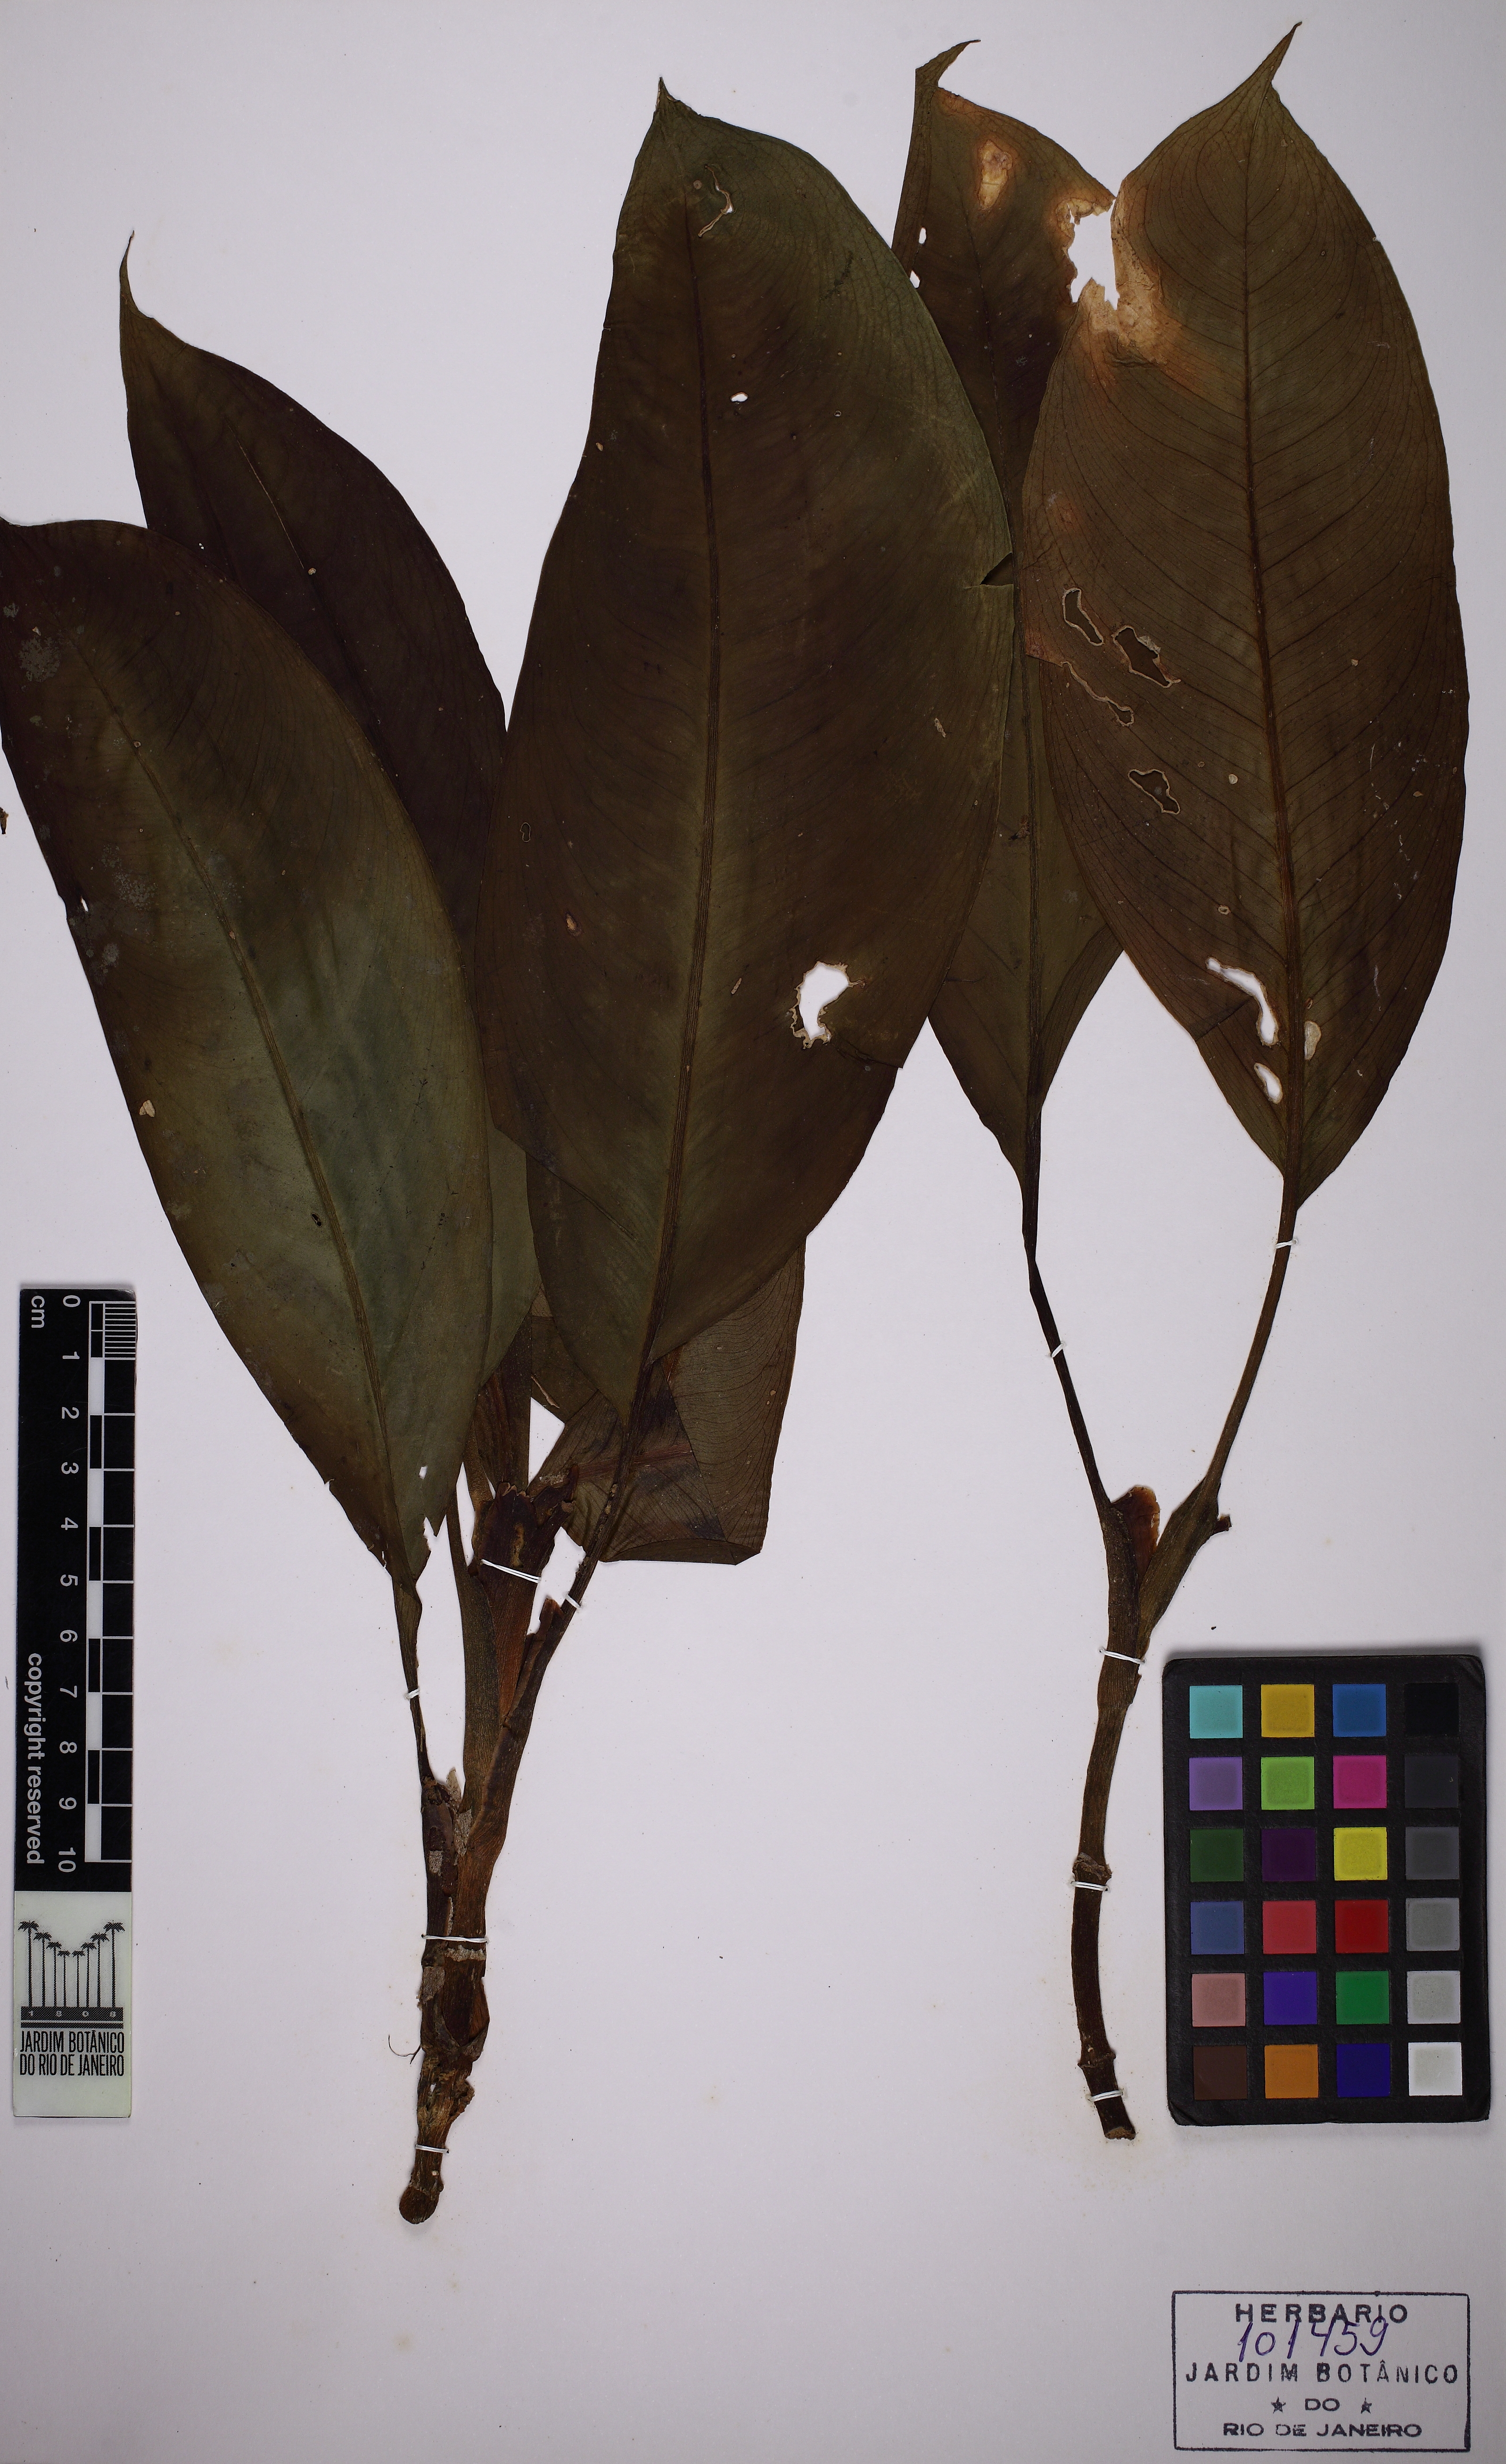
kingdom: Plantae
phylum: Tracheophyta
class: Liliopsida
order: Alismatales
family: Araceae
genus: Dieffenbachia
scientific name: Dieffenbachia parvifolia
